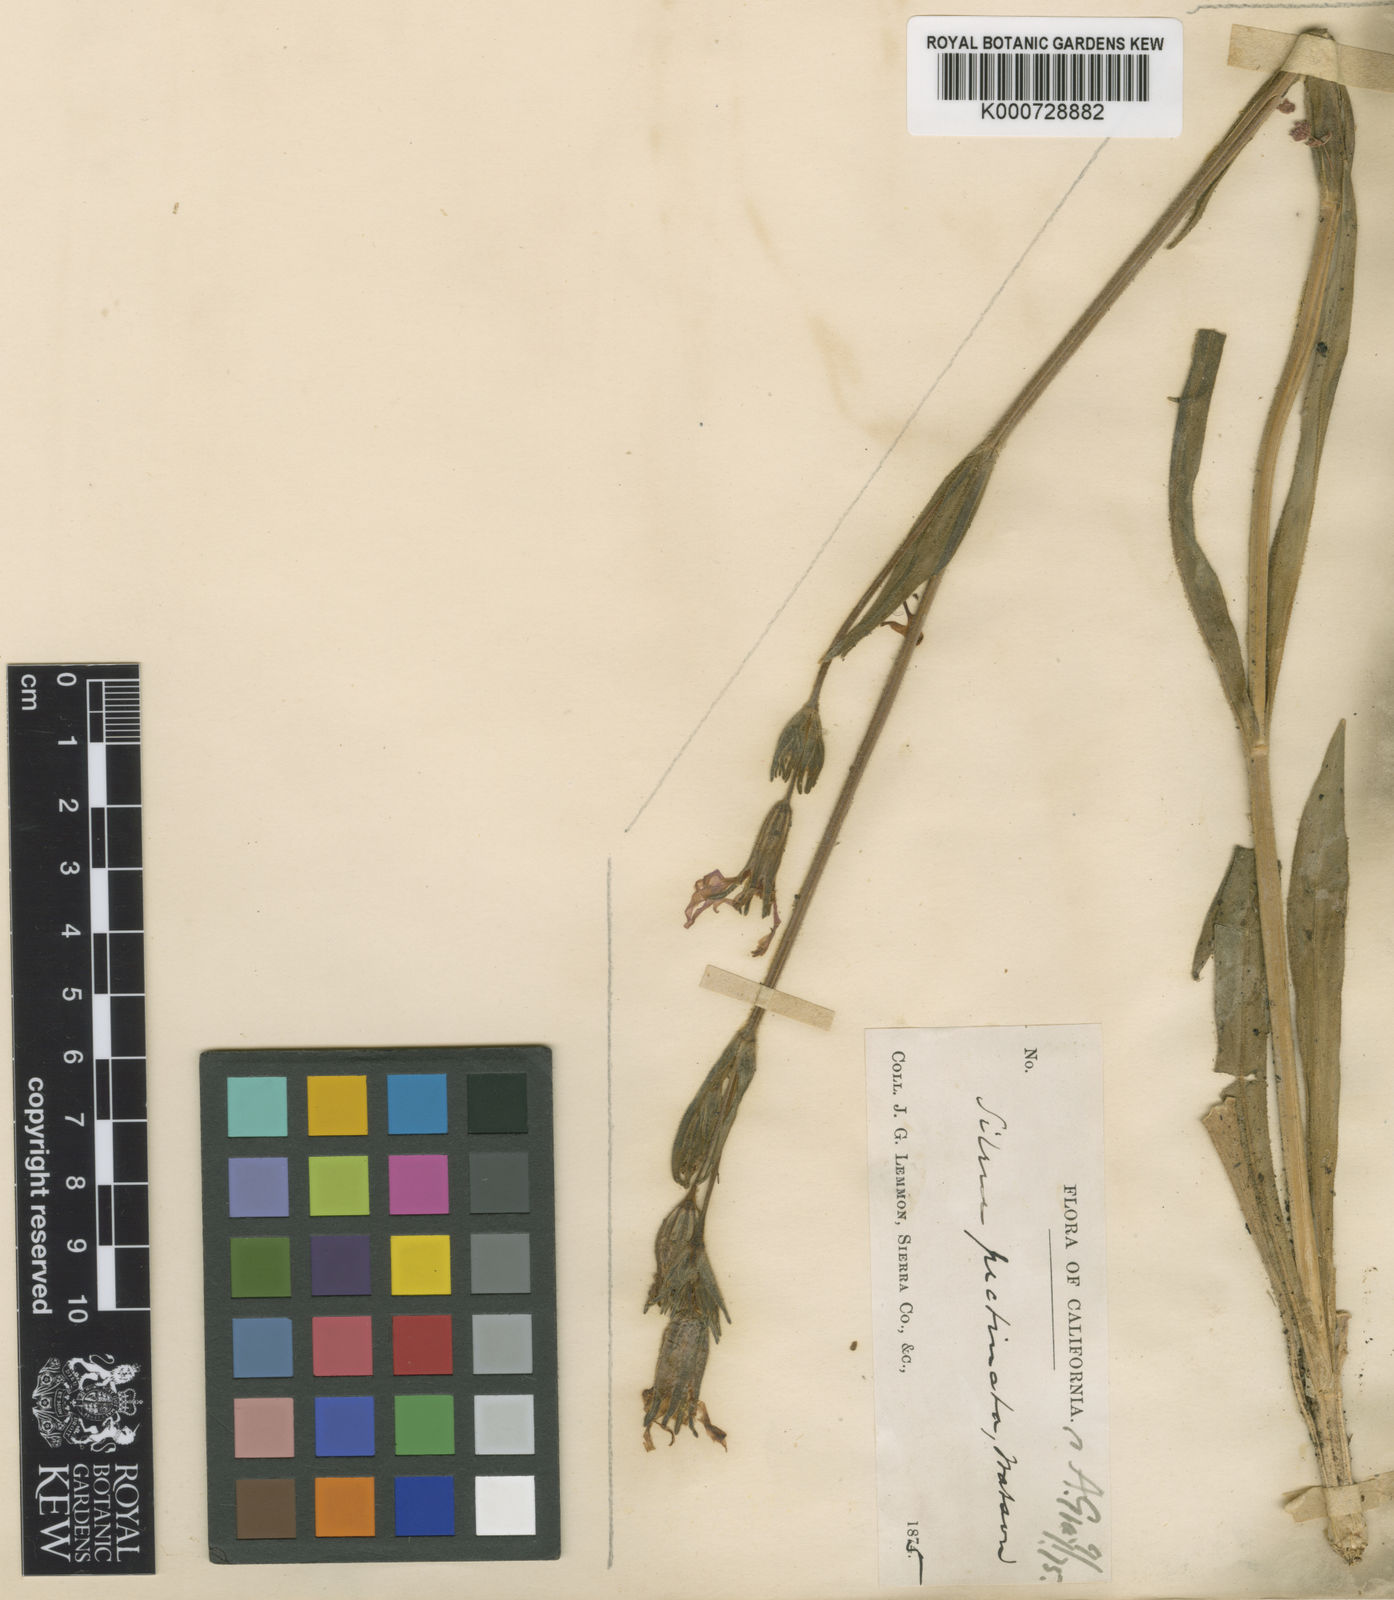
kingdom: Plantae
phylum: Tracheophyta
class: Magnoliopsida
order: Caryophyllales
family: Caryophyllaceae
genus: Silene
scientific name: Silene nuda
